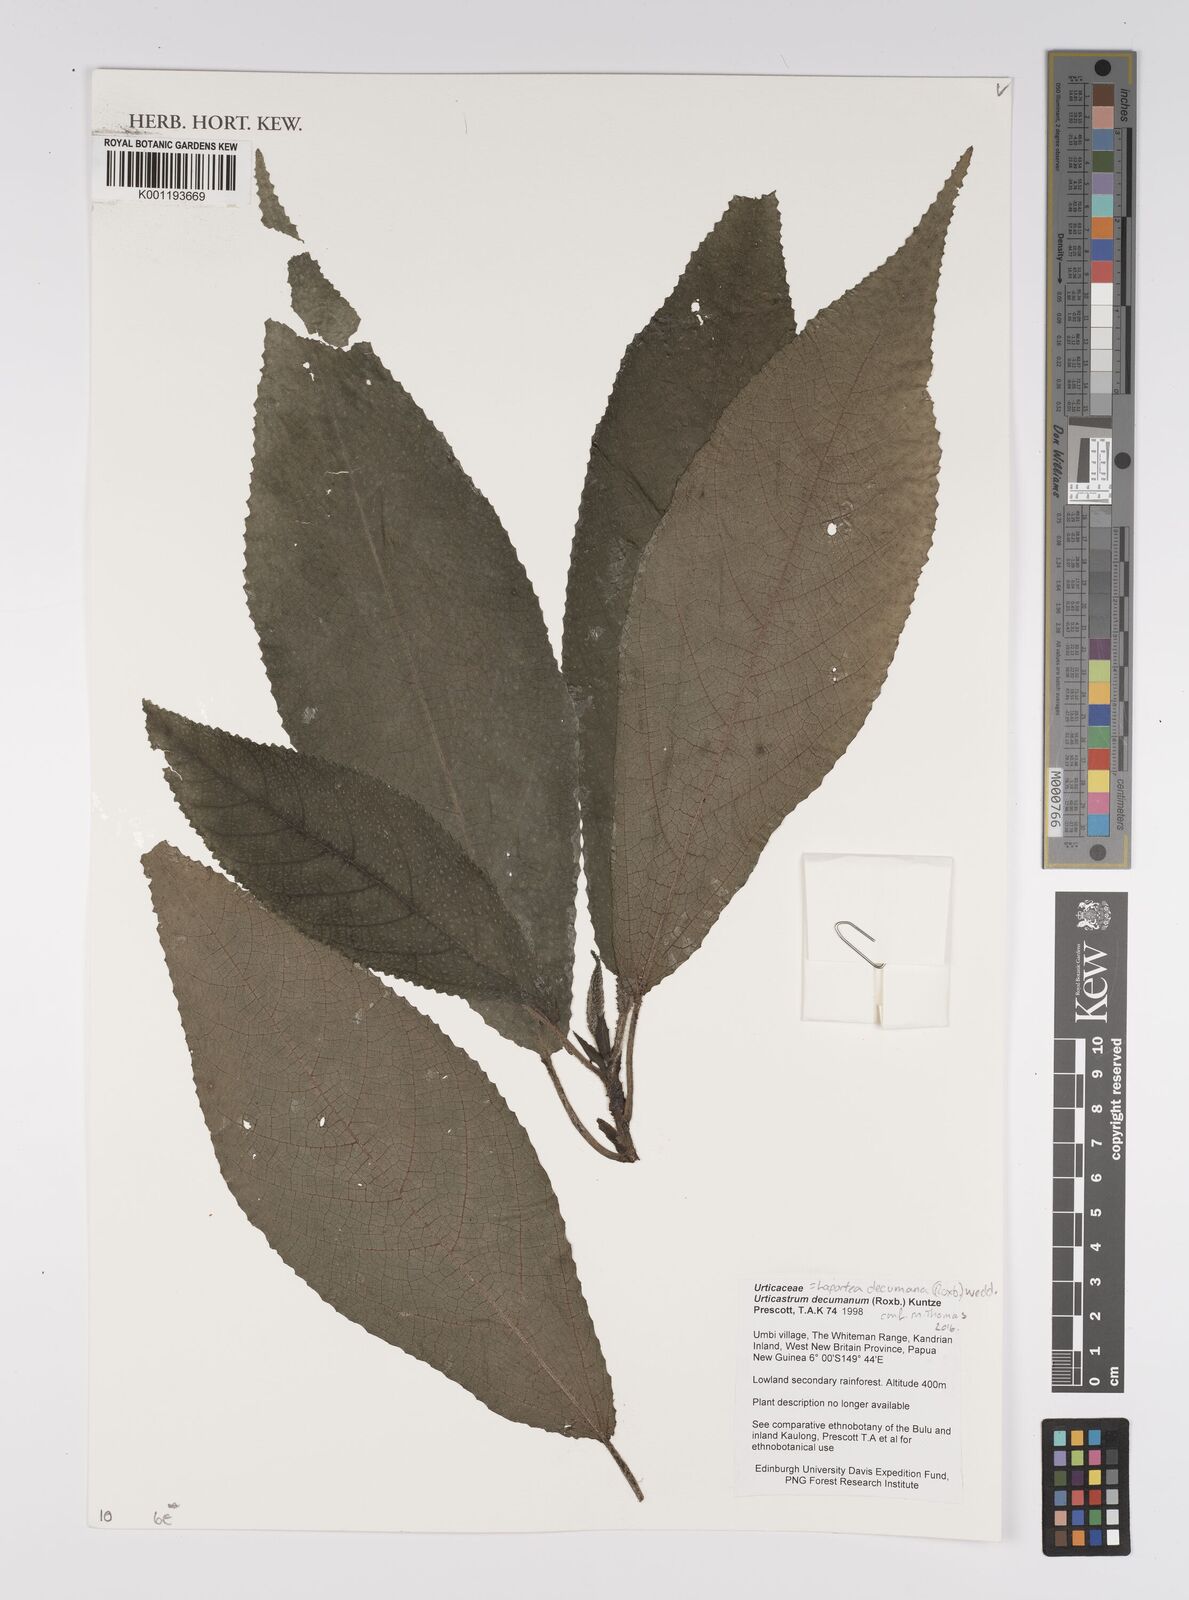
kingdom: Plantae
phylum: Tracheophyta
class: Magnoliopsida
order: Rosales
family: Urticaceae
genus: Laportea
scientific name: Laportea decumana
